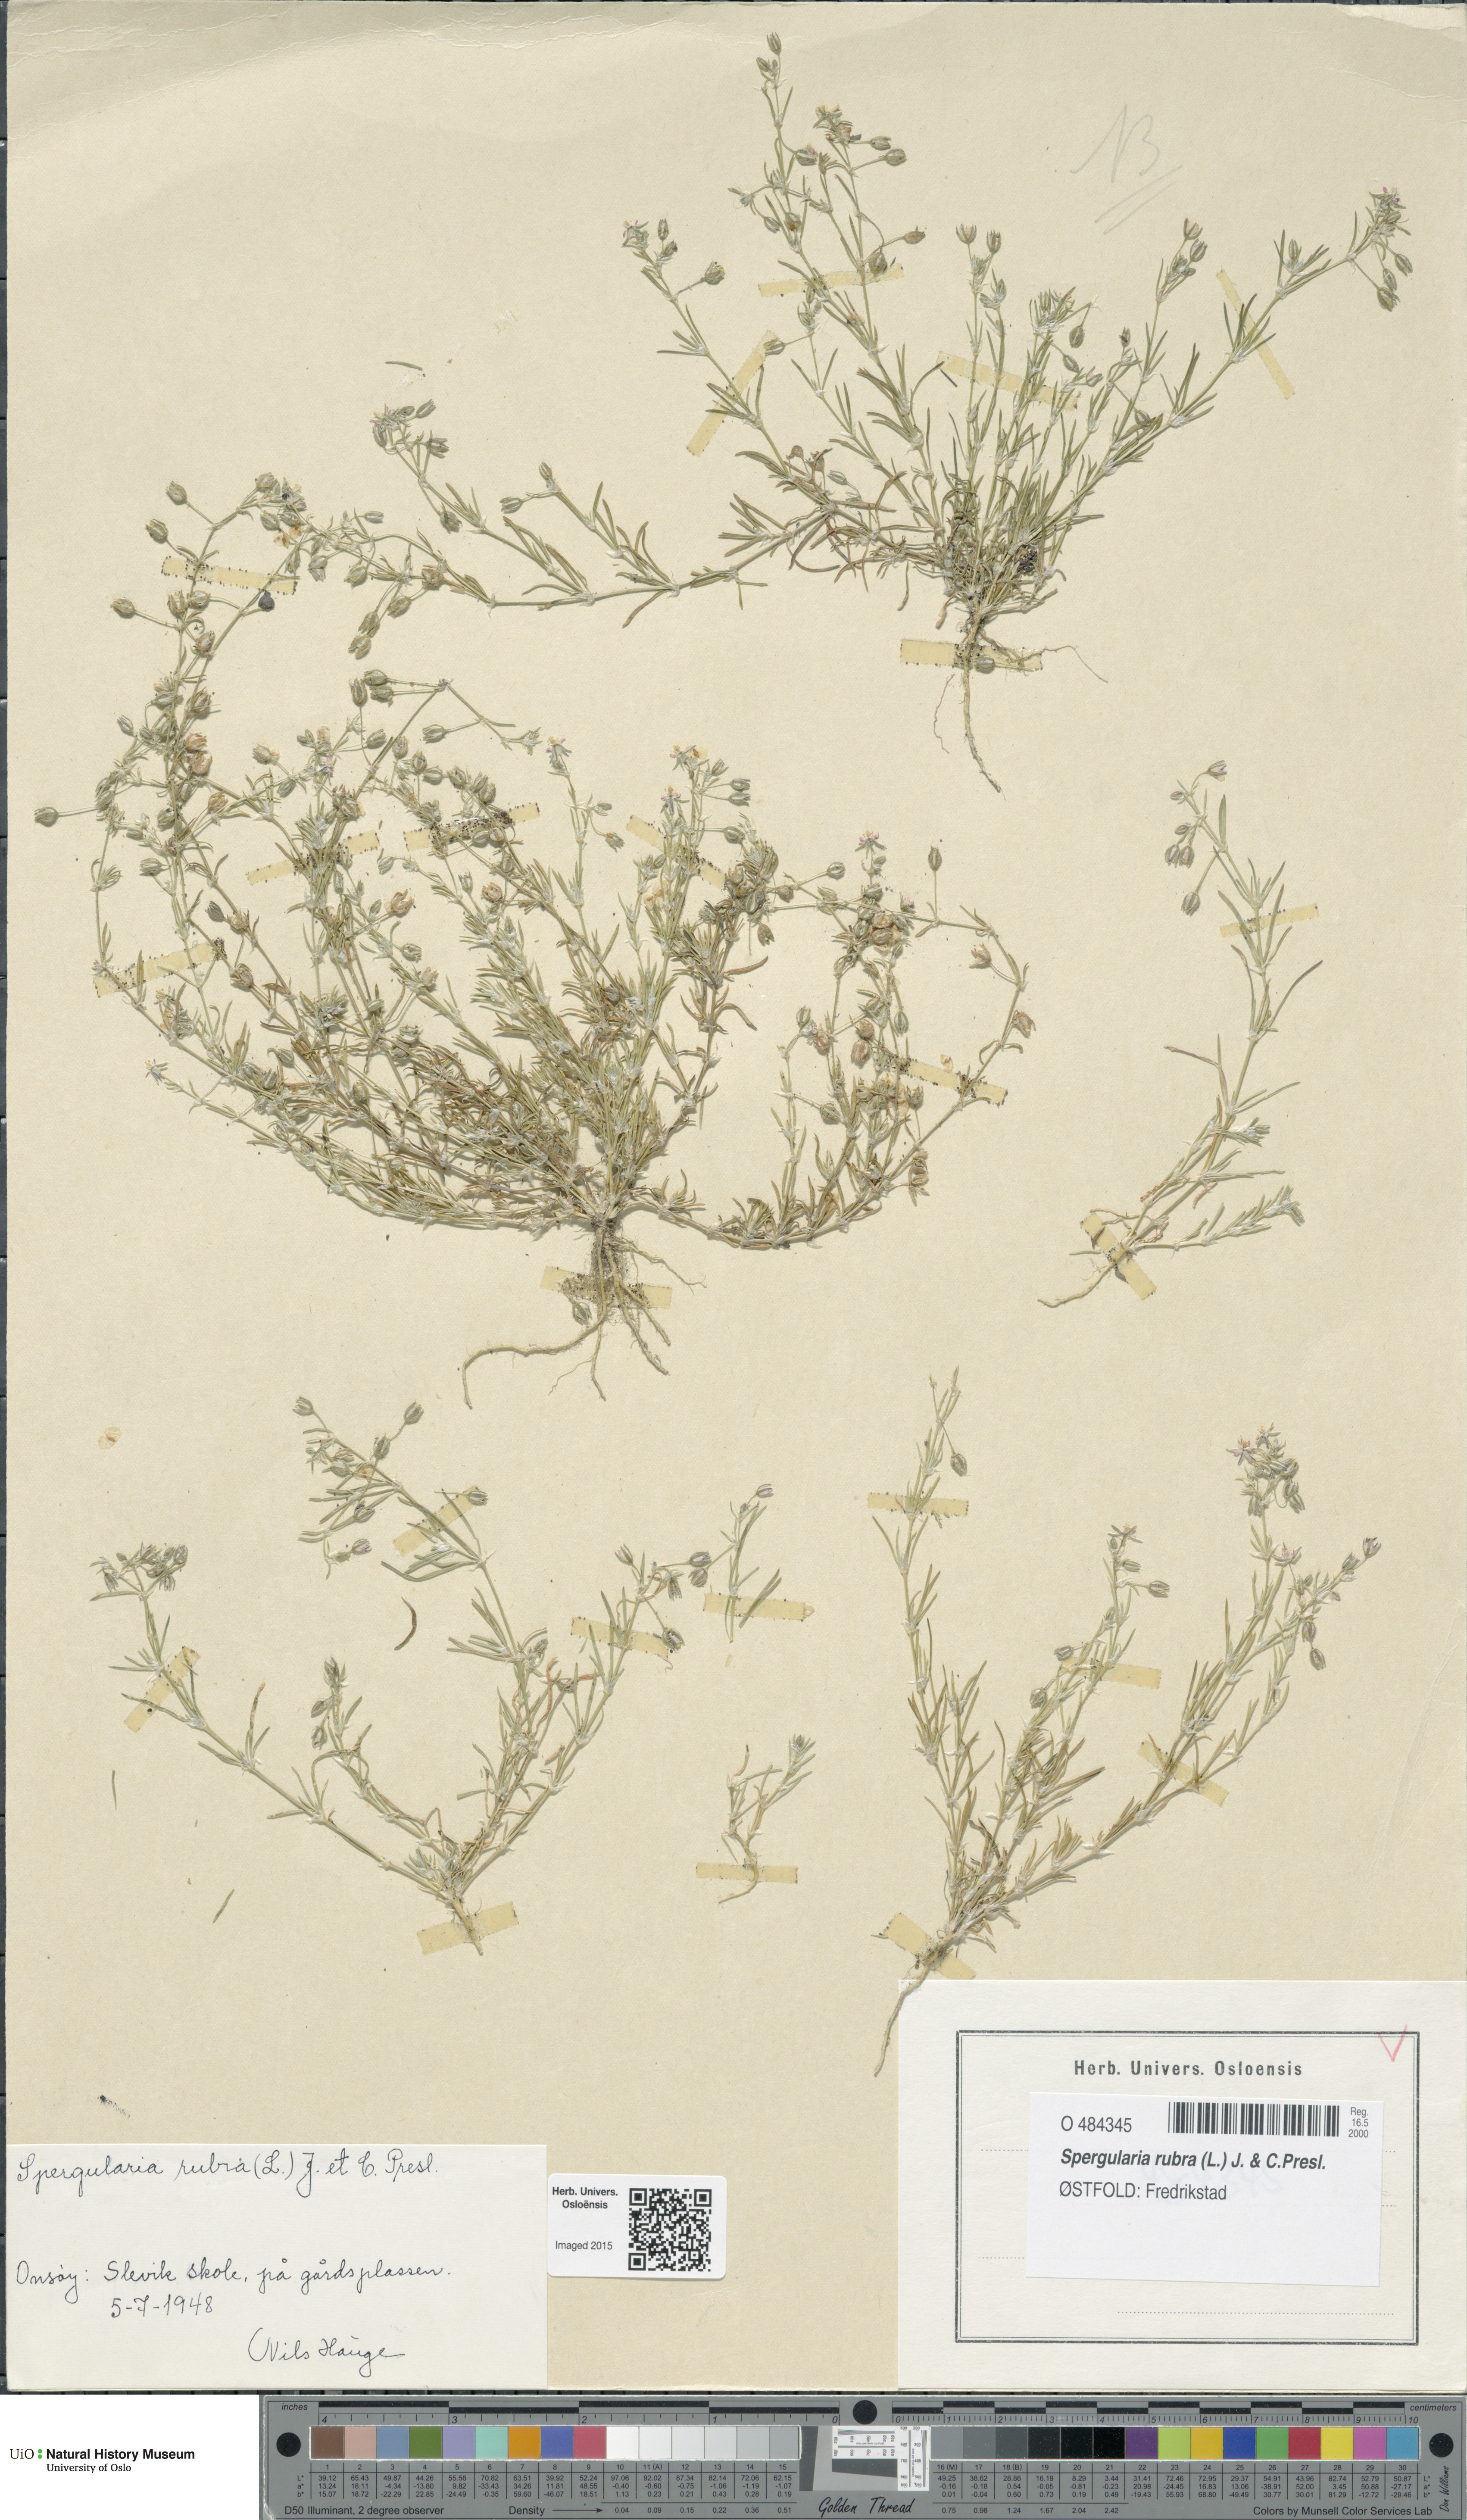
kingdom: Plantae
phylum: Tracheophyta
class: Magnoliopsida
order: Caryophyllales
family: Caryophyllaceae
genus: Spergularia
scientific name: Spergularia rubra
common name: Red sand-spurrey
